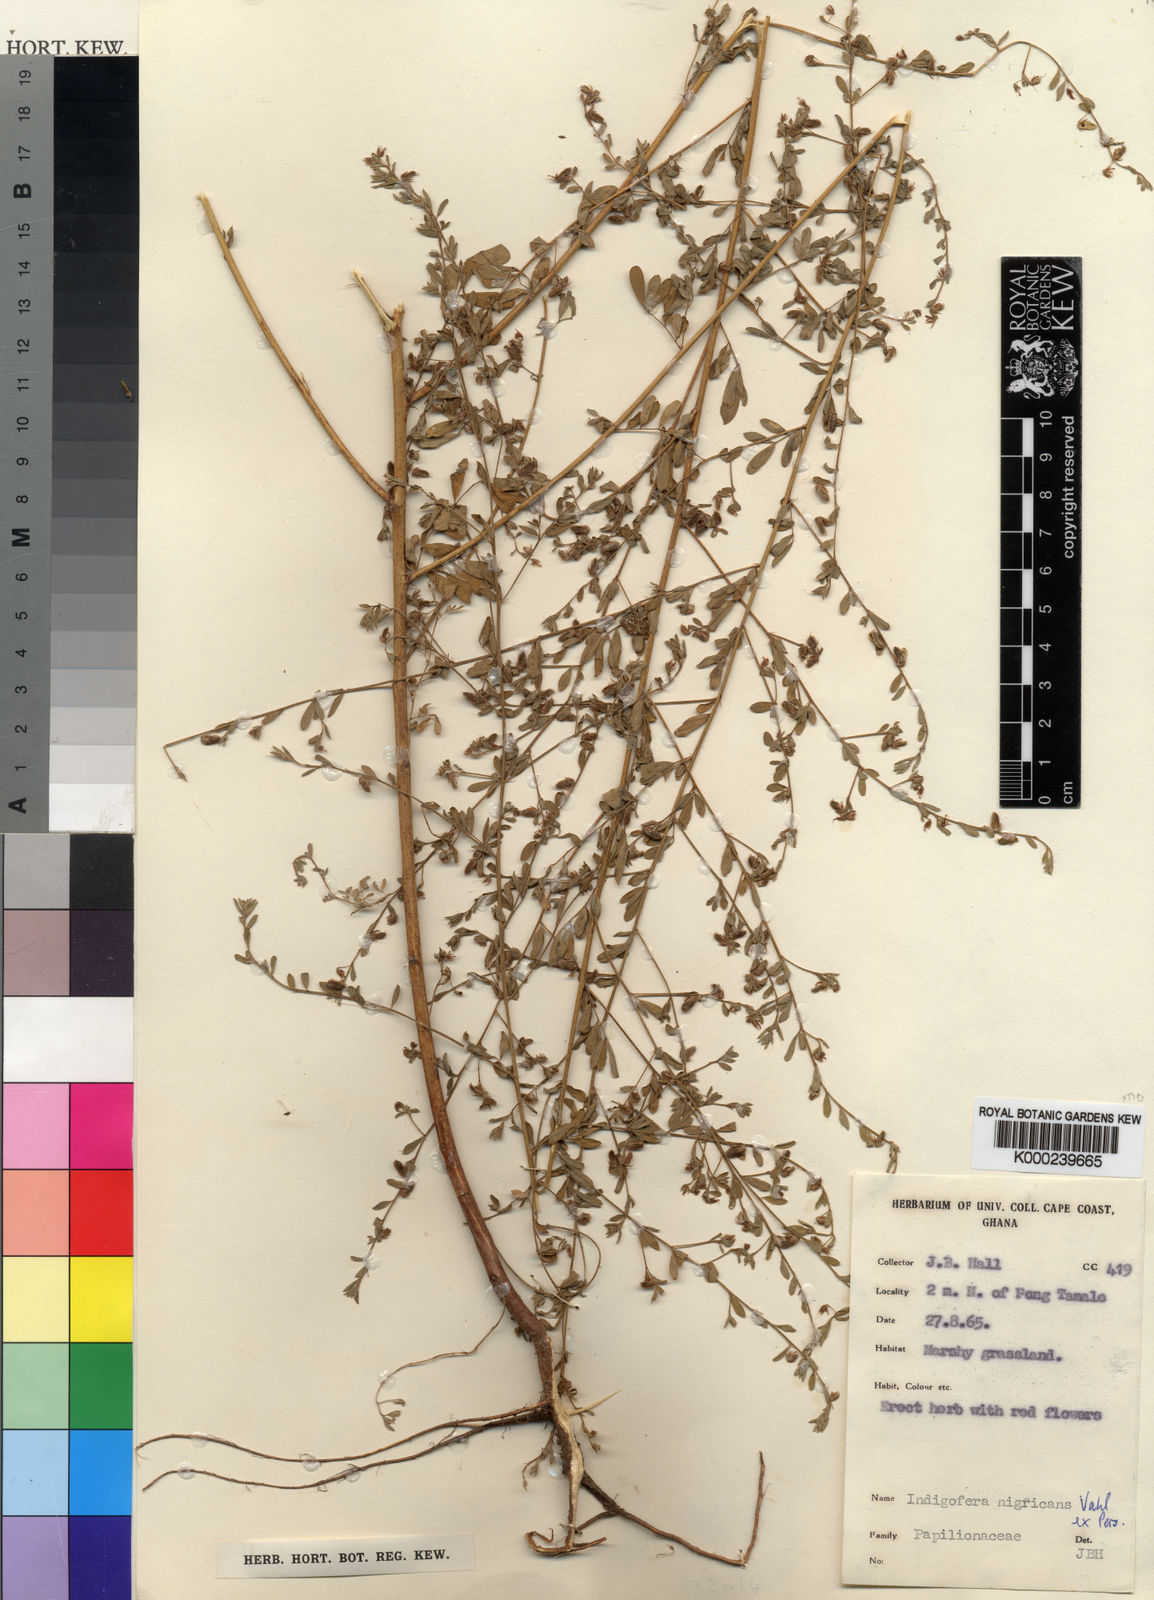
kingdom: Plantae
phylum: Tracheophyta
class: Magnoliopsida
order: Fabales
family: Fabaceae
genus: Indigofera
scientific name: Indigofera nigricans
